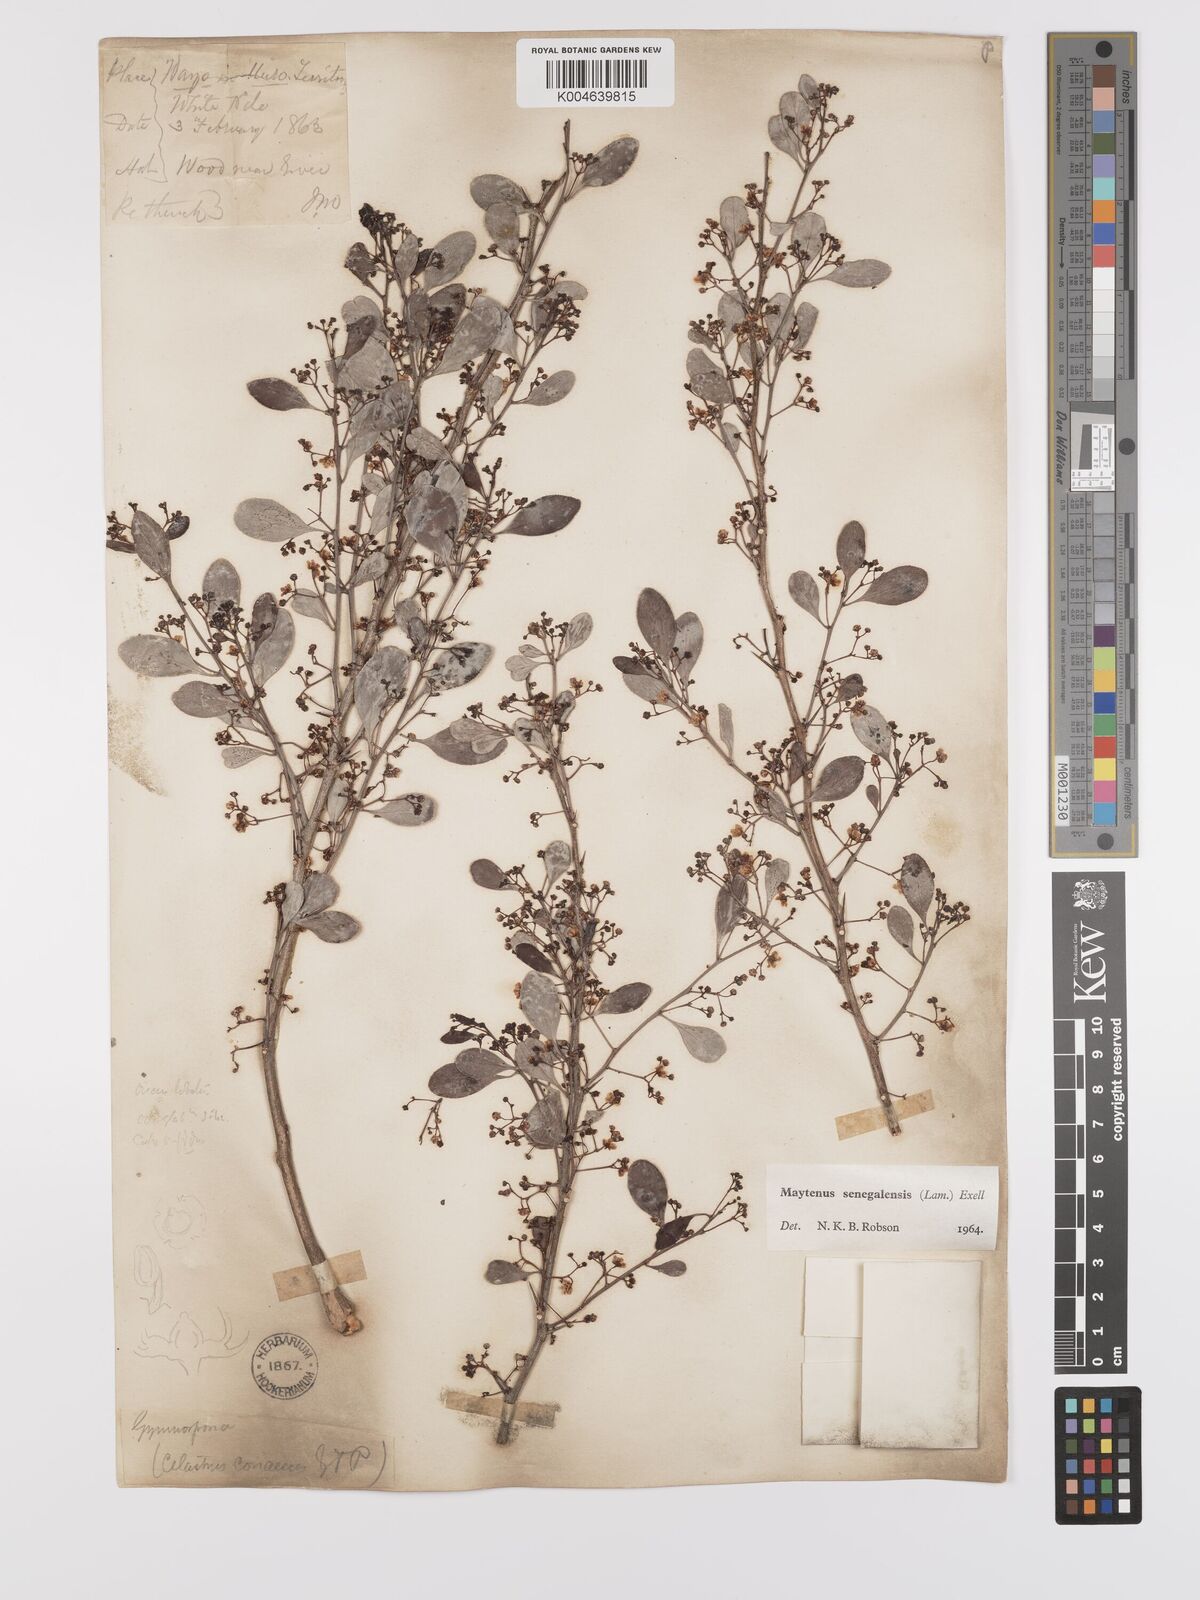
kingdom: Plantae
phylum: Tracheophyta
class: Magnoliopsida
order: Celastrales
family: Celastraceae
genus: Gymnosporia
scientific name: Gymnosporia senegalensis
